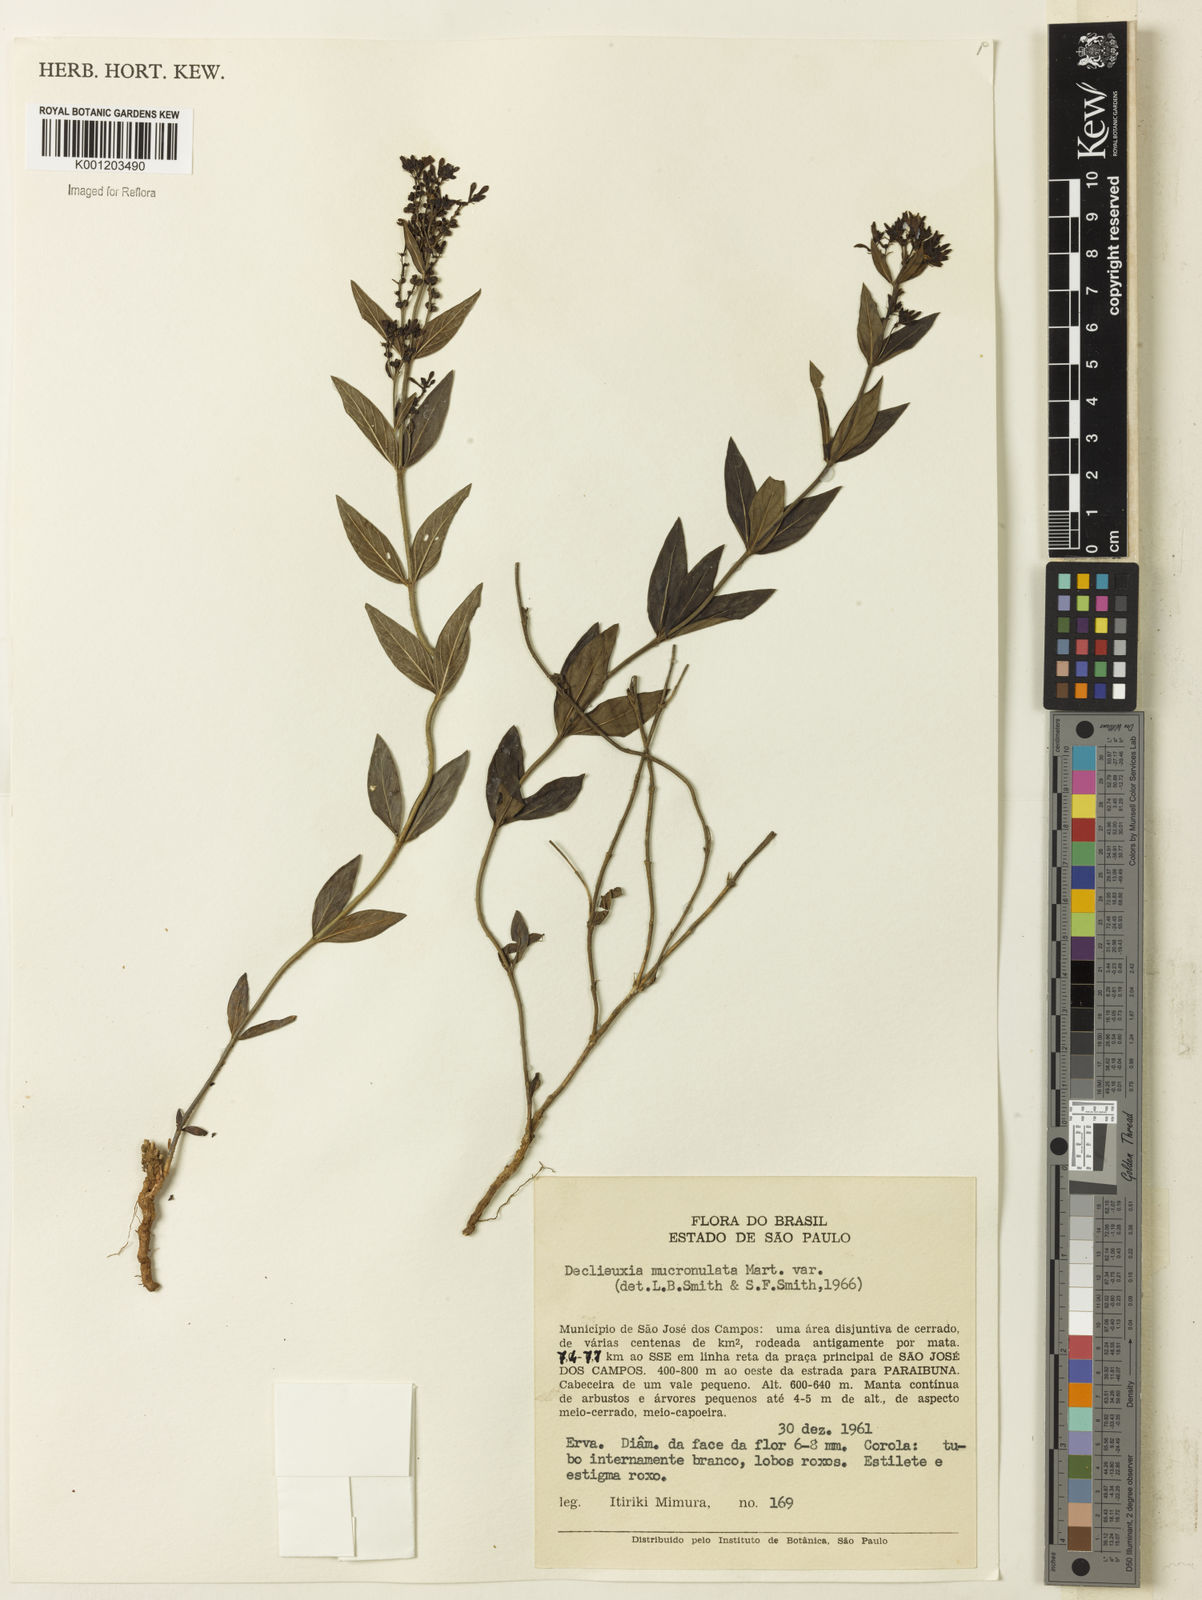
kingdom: Plantae
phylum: Tracheophyta
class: Magnoliopsida
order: Gentianales
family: Rubiaceae
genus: Declieuxia
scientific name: Declieuxia fruticosa
